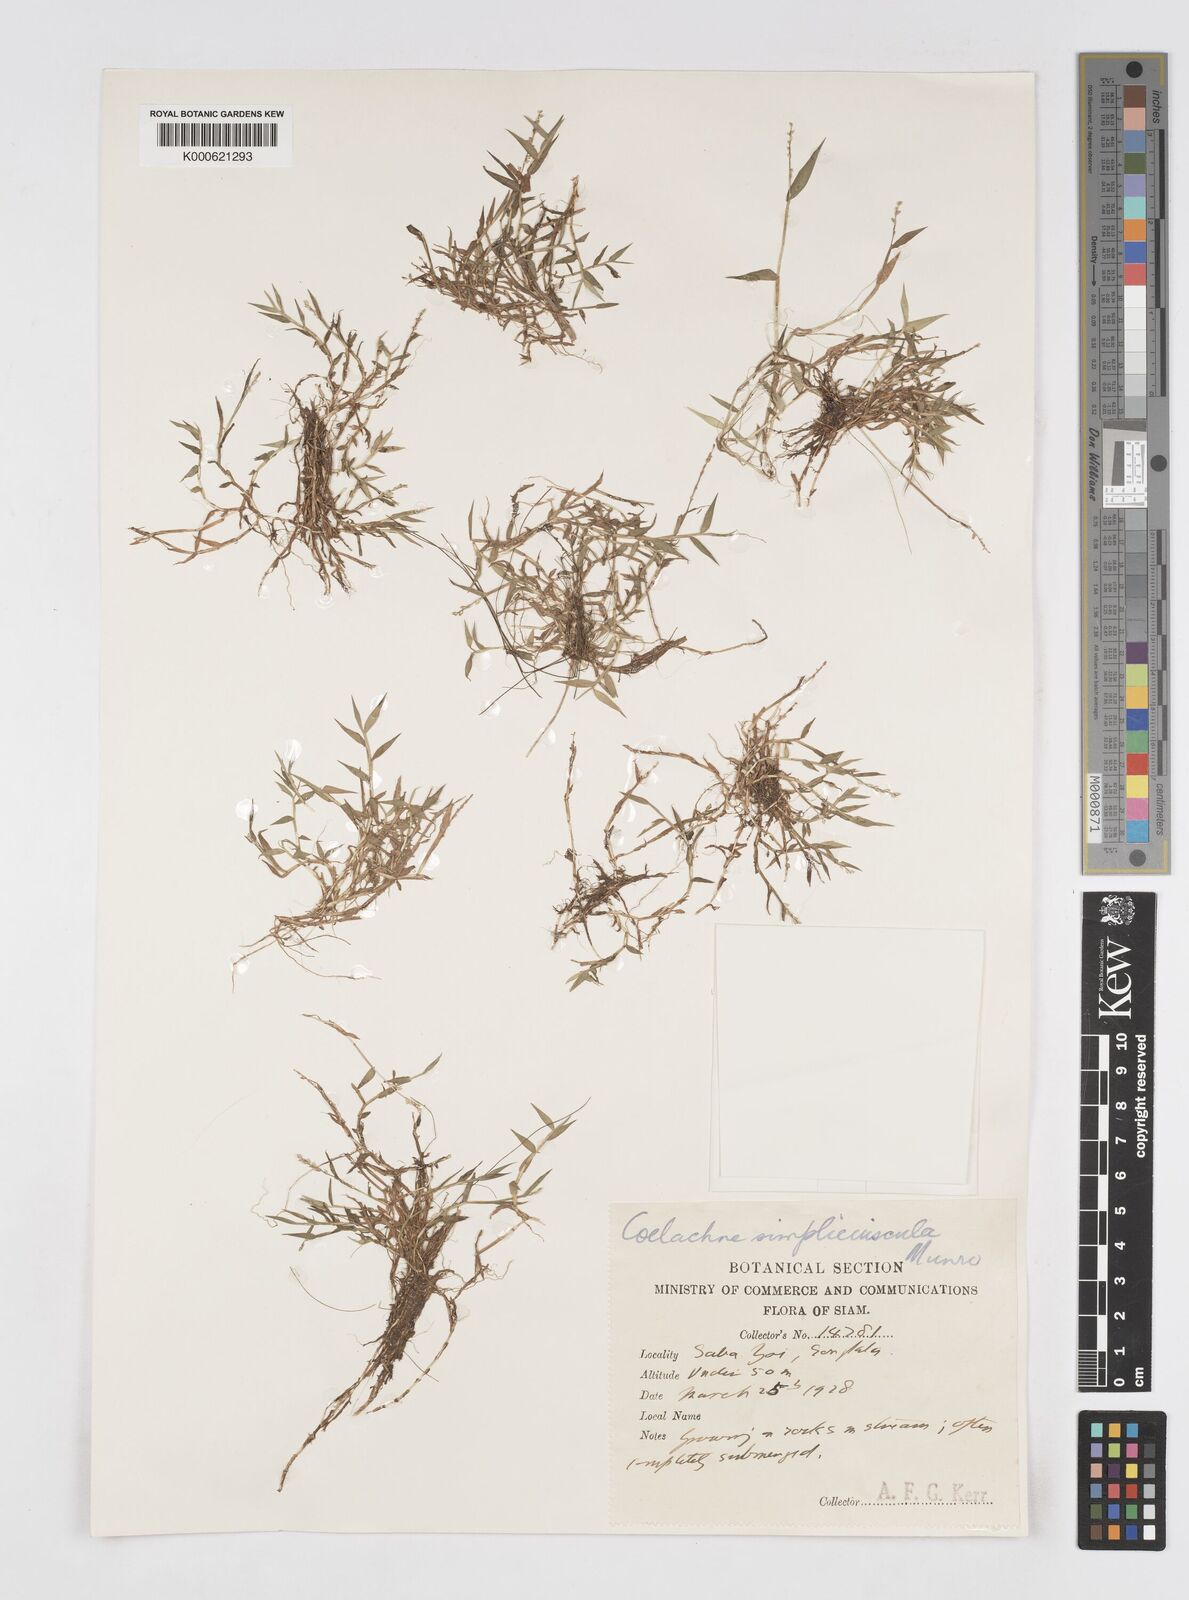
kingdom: Plantae
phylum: Tracheophyta
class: Liliopsida
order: Poales
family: Poaceae
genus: Coelachne
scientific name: Coelachne simpliciuscula
